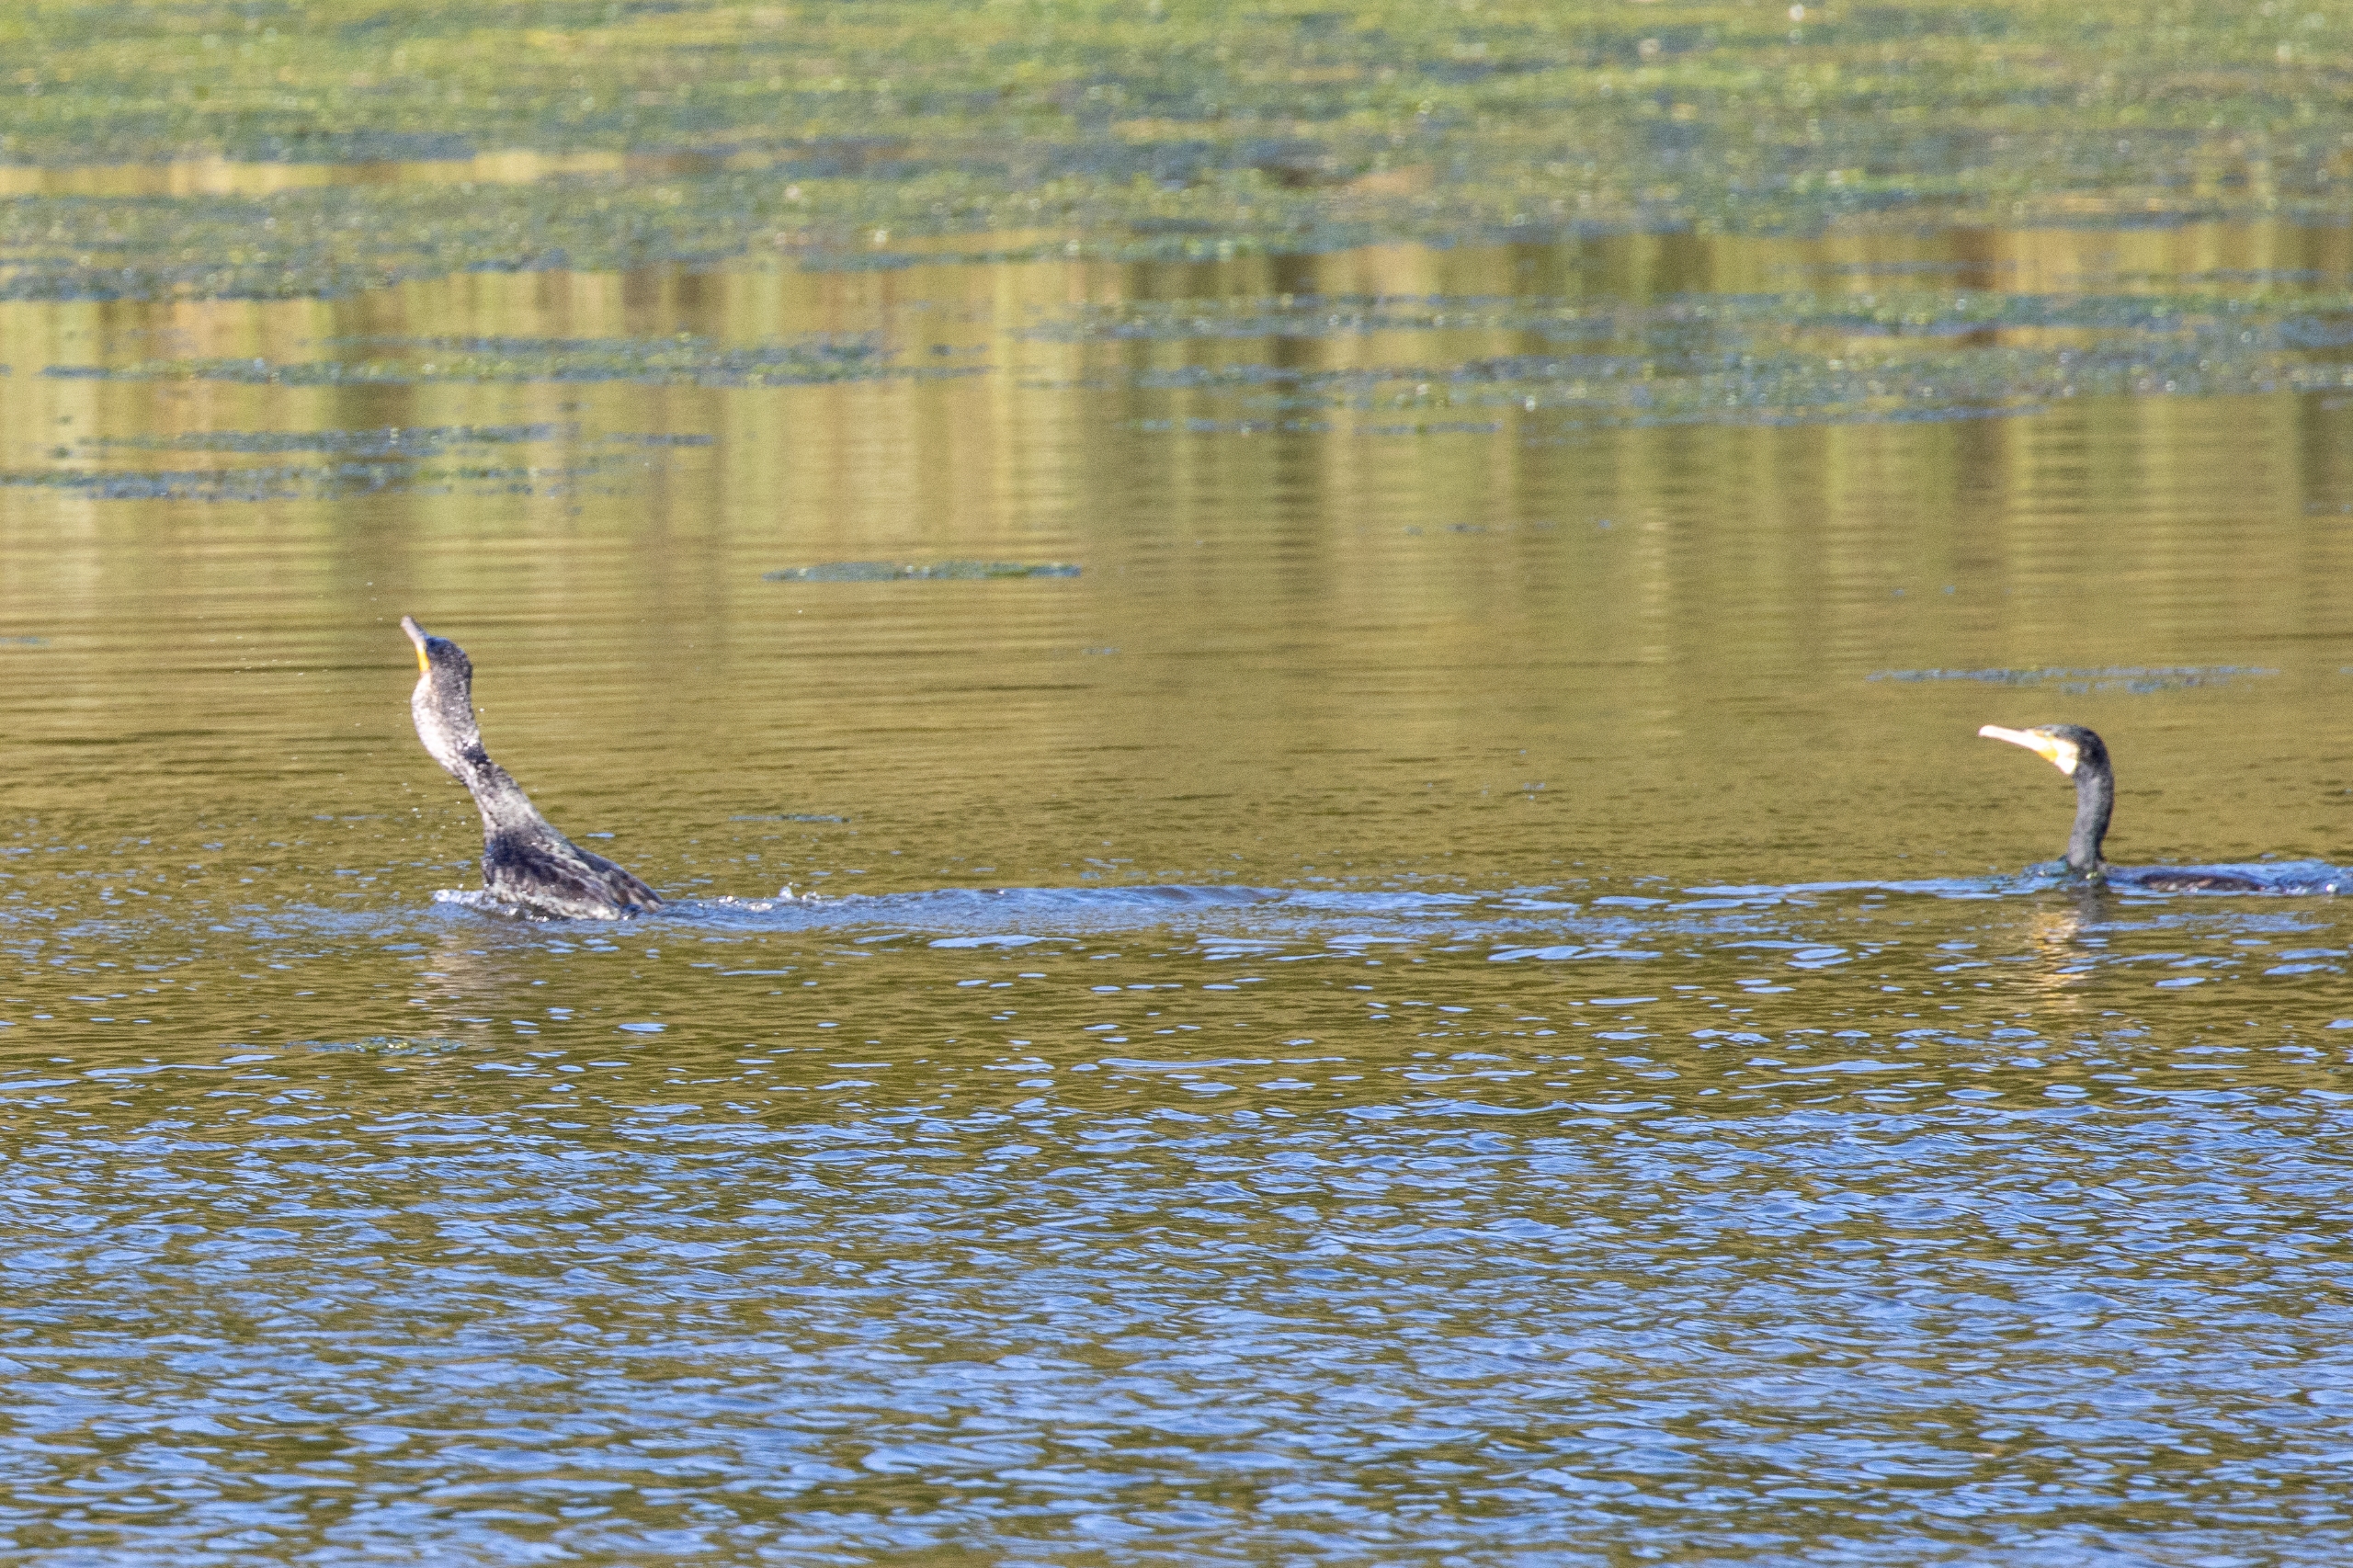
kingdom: Animalia
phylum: Chordata
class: Aves
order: Suliformes
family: Phalacrocoracidae
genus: Phalacrocorax
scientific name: Phalacrocorax carbo
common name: Skarv
